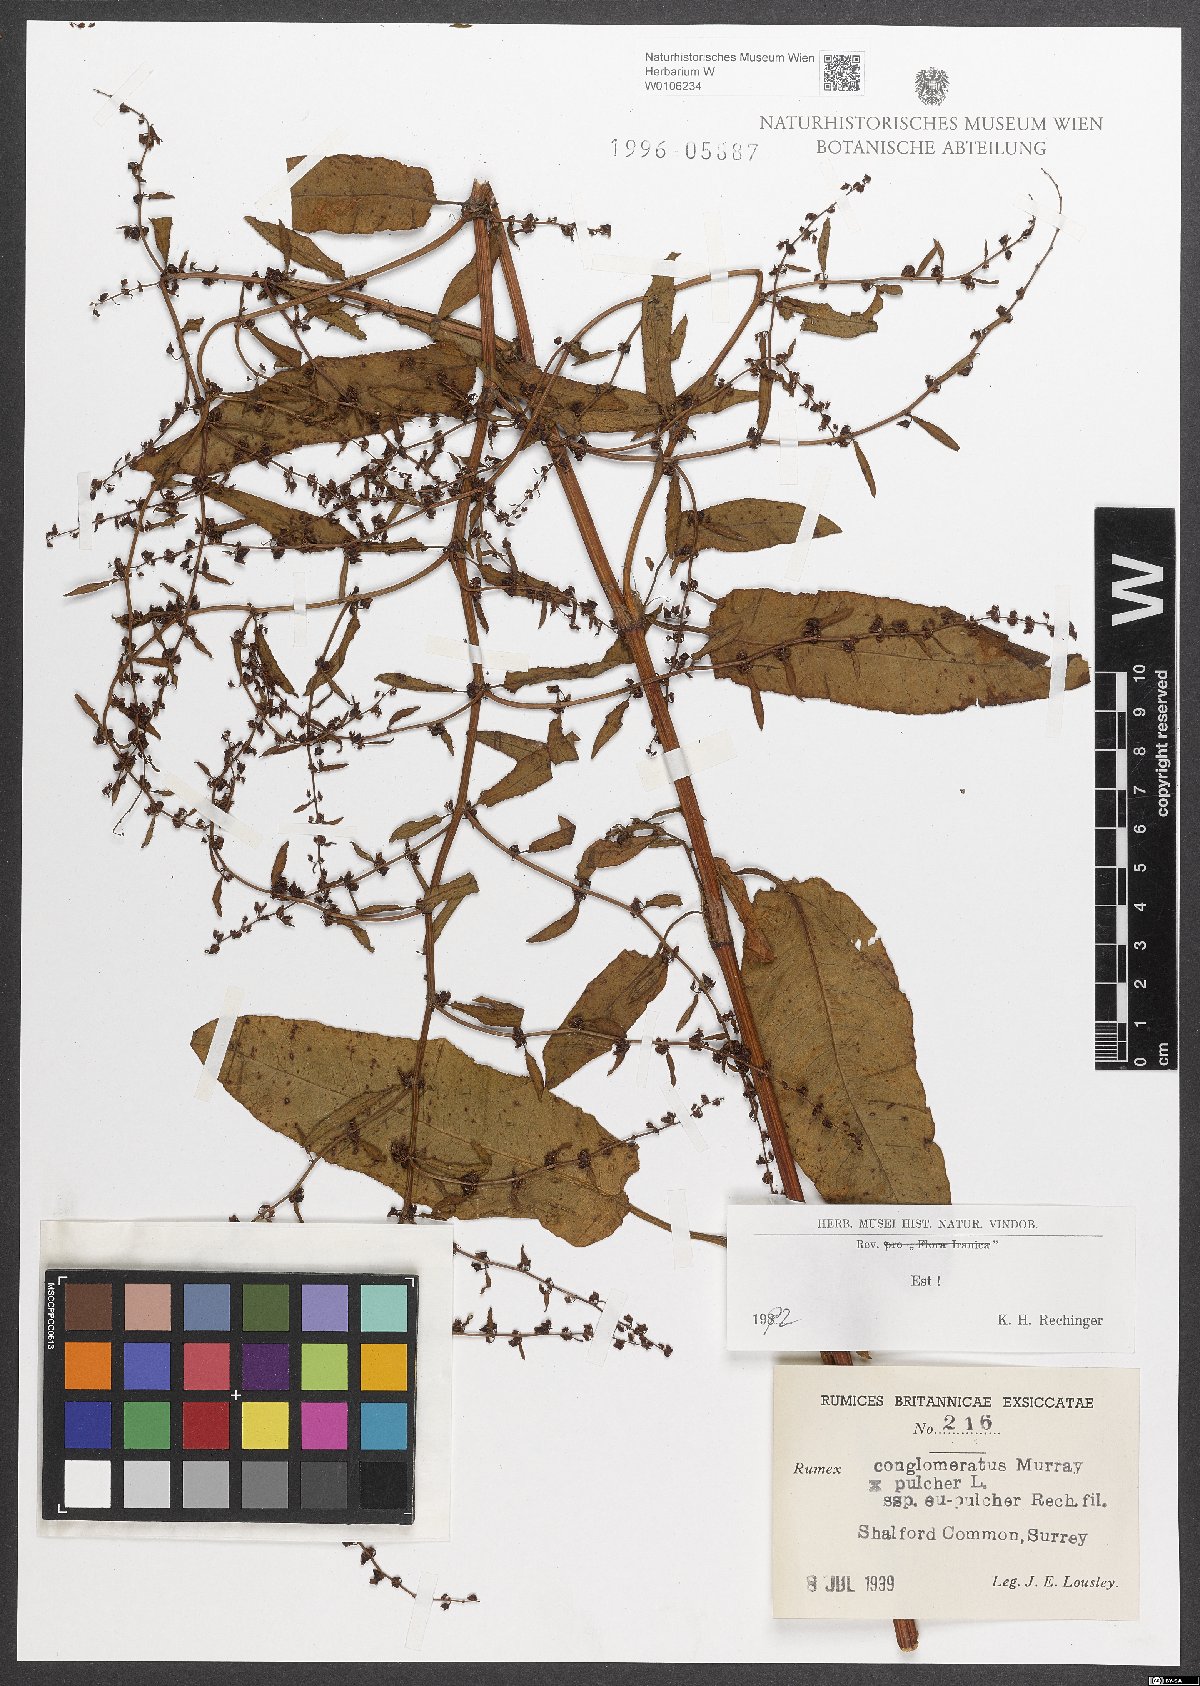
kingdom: Plantae
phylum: Tracheophyta
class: Magnoliopsida
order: Caryophyllales
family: Polygonaceae
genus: Rumex
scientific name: Rumex
